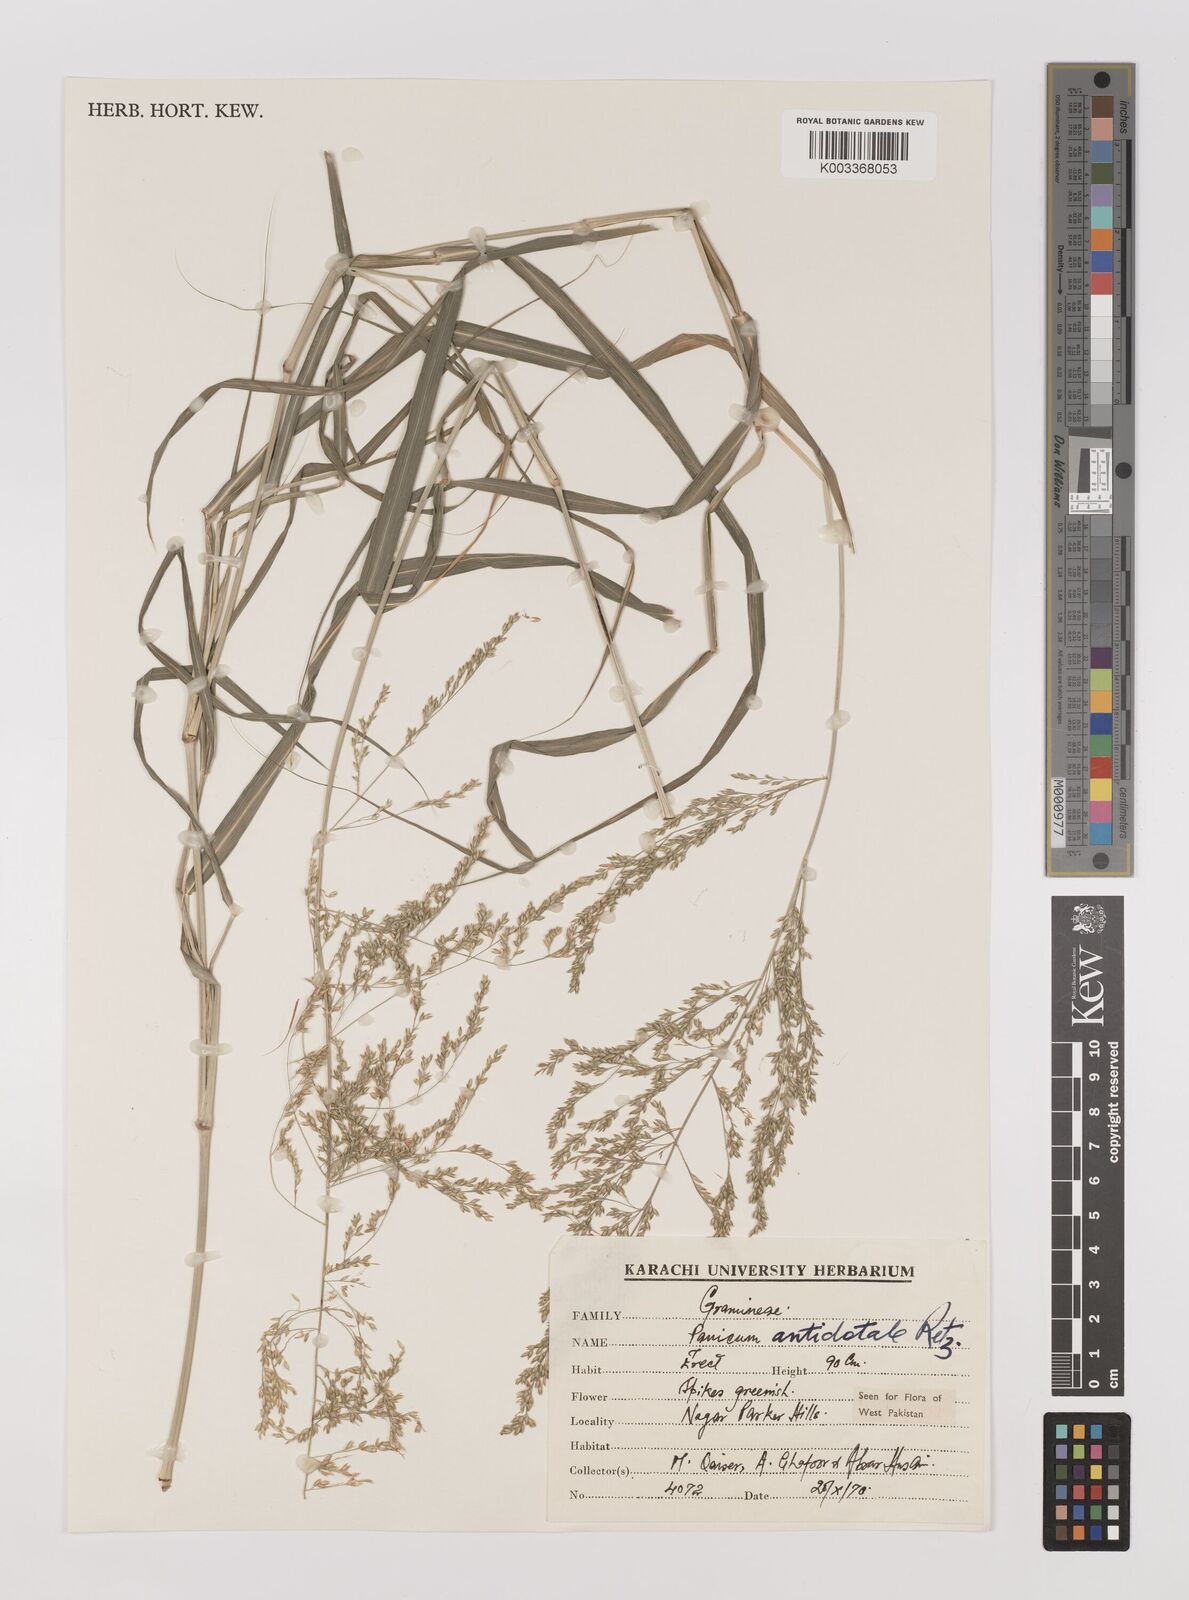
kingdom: Plantae
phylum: Tracheophyta
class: Liliopsida
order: Poales
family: Poaceae
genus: Panicum
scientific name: Panicum antidotale
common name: Blue panicum
